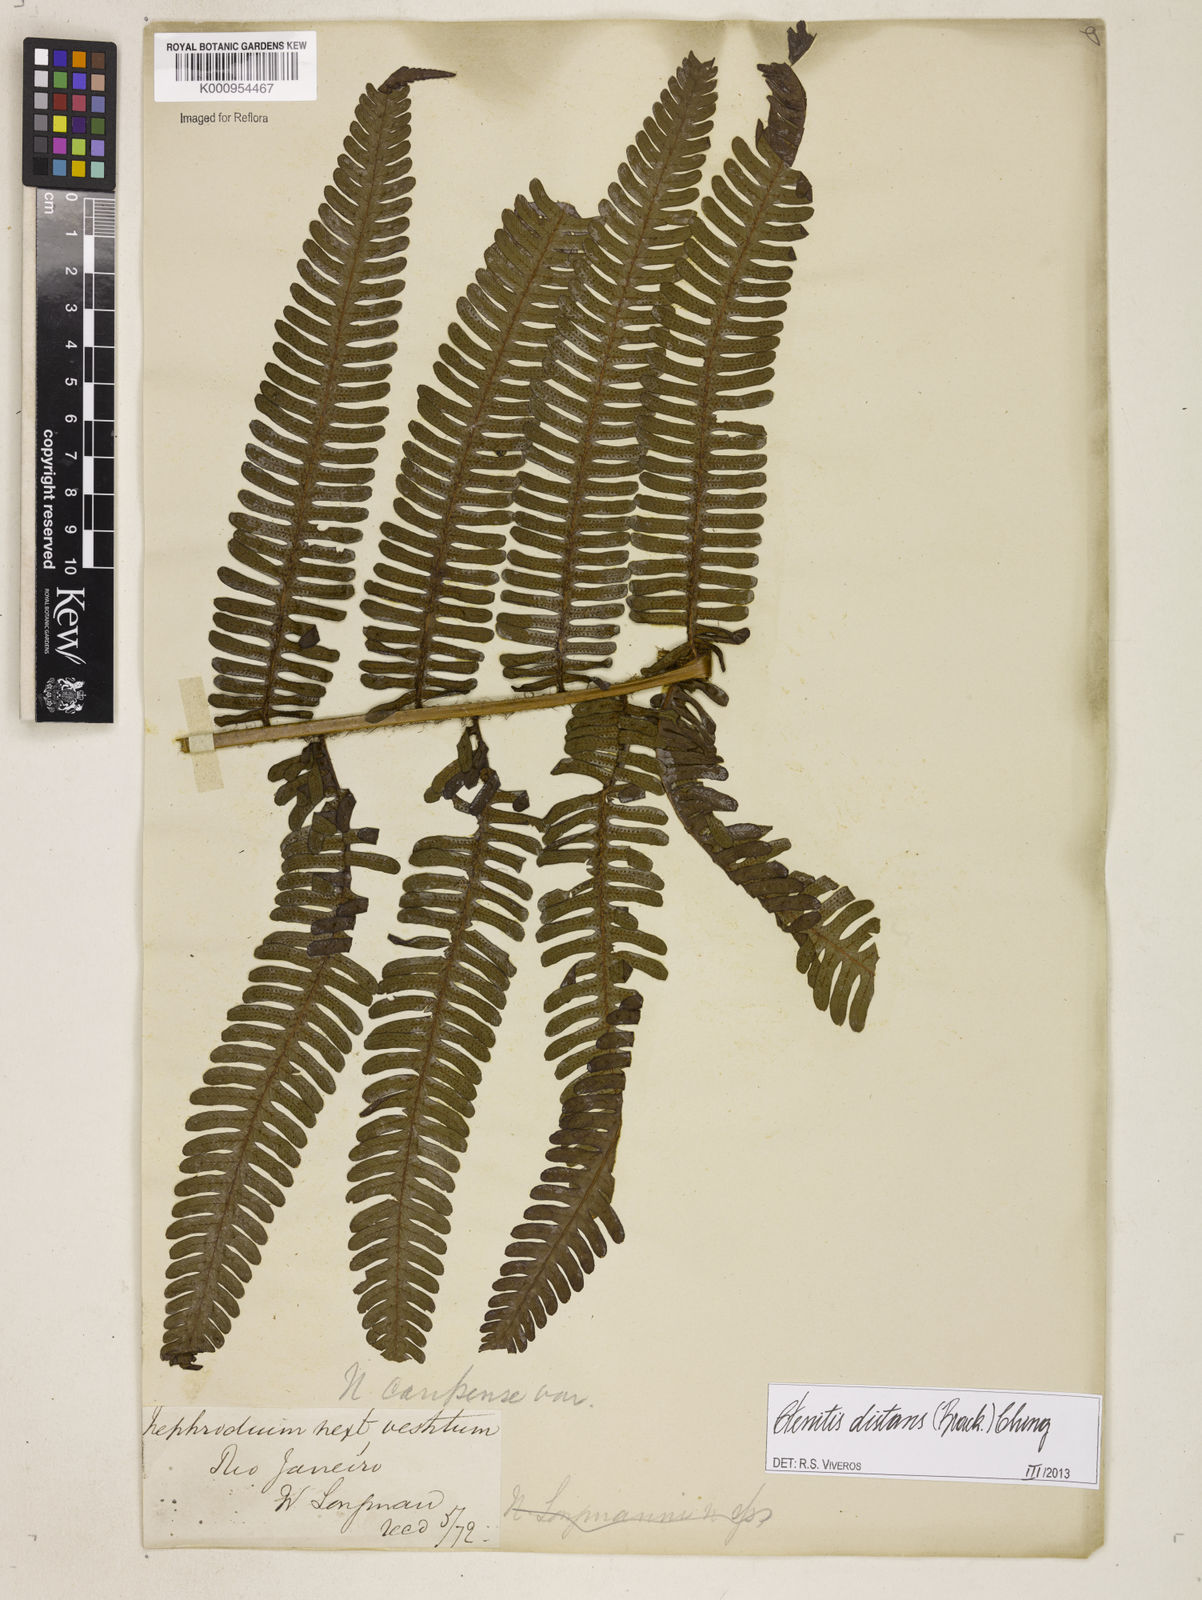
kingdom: Plantae
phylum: Tracheophyta
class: Polypodiopsida
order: Polypodiales
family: Dryopteridaceae
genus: Ctenitis
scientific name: Ctenitis distans
